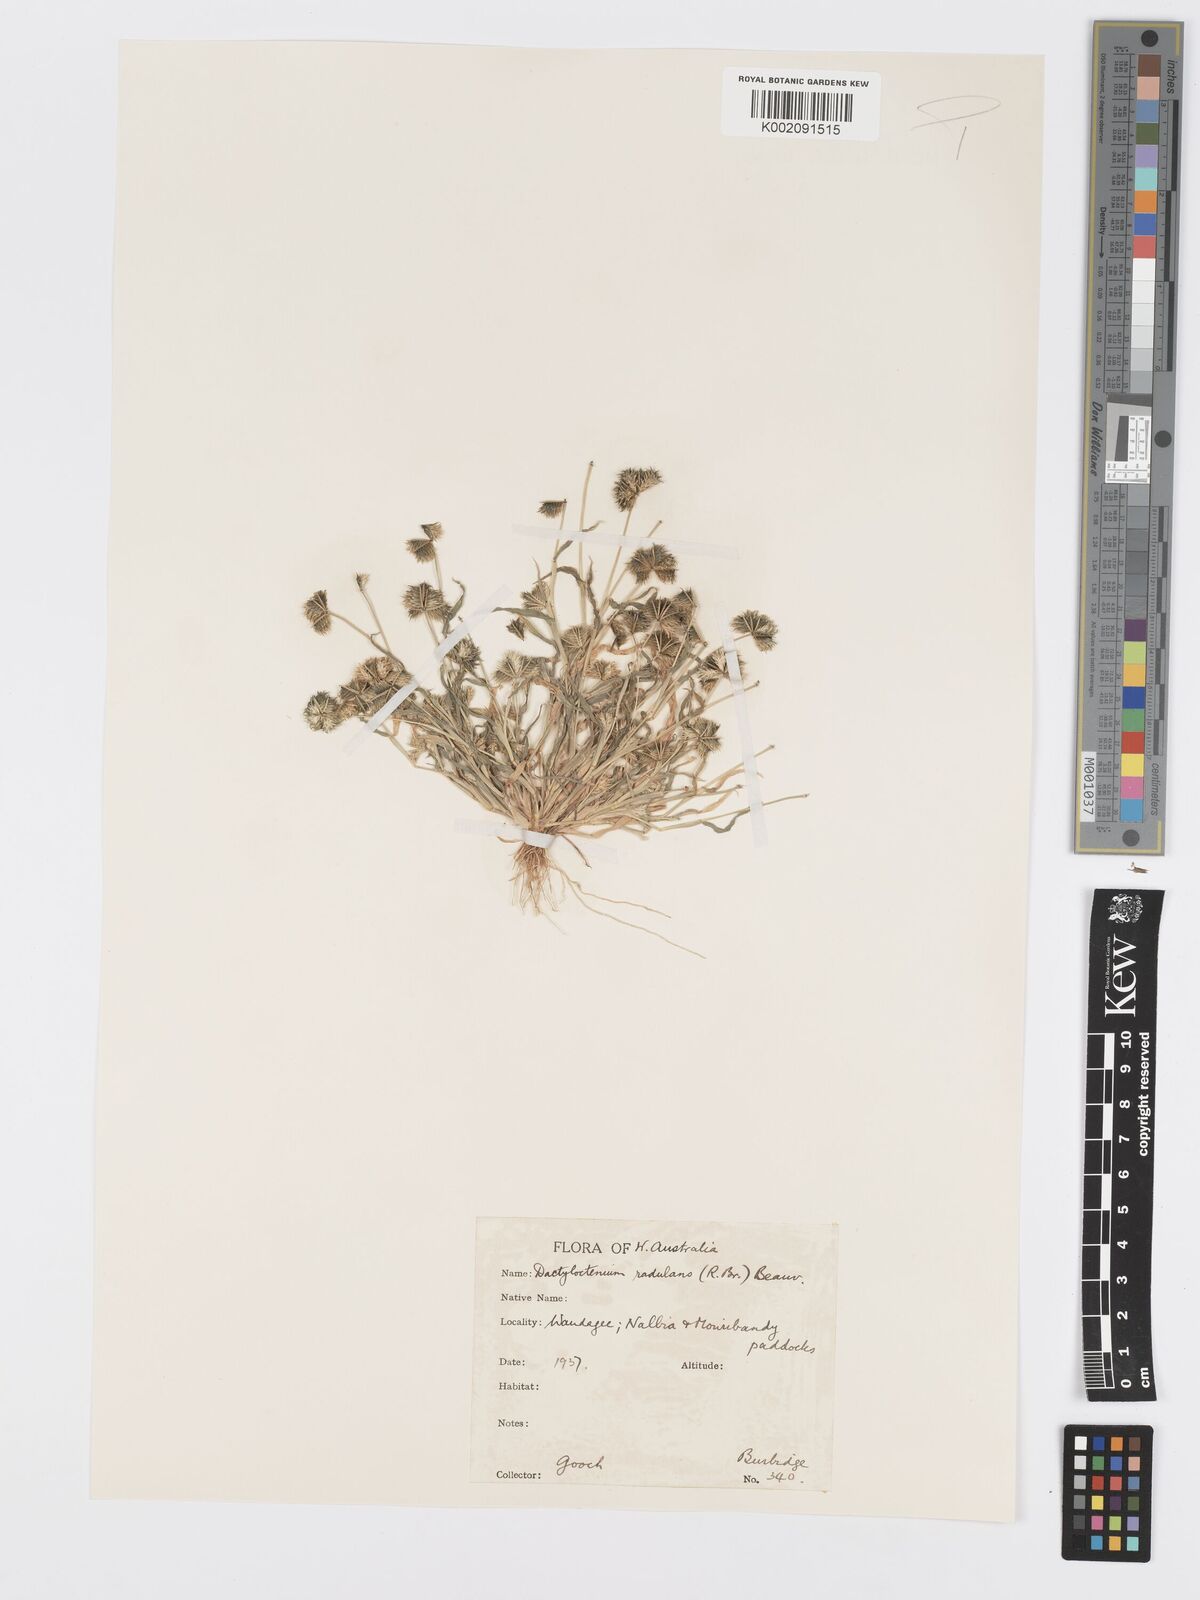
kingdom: Plantae
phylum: Tracheophyta
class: Liliopsida
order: Poales
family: Poaceae
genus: Dactyloctenium
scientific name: Dactyloctenium radulans
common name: Button-grass
